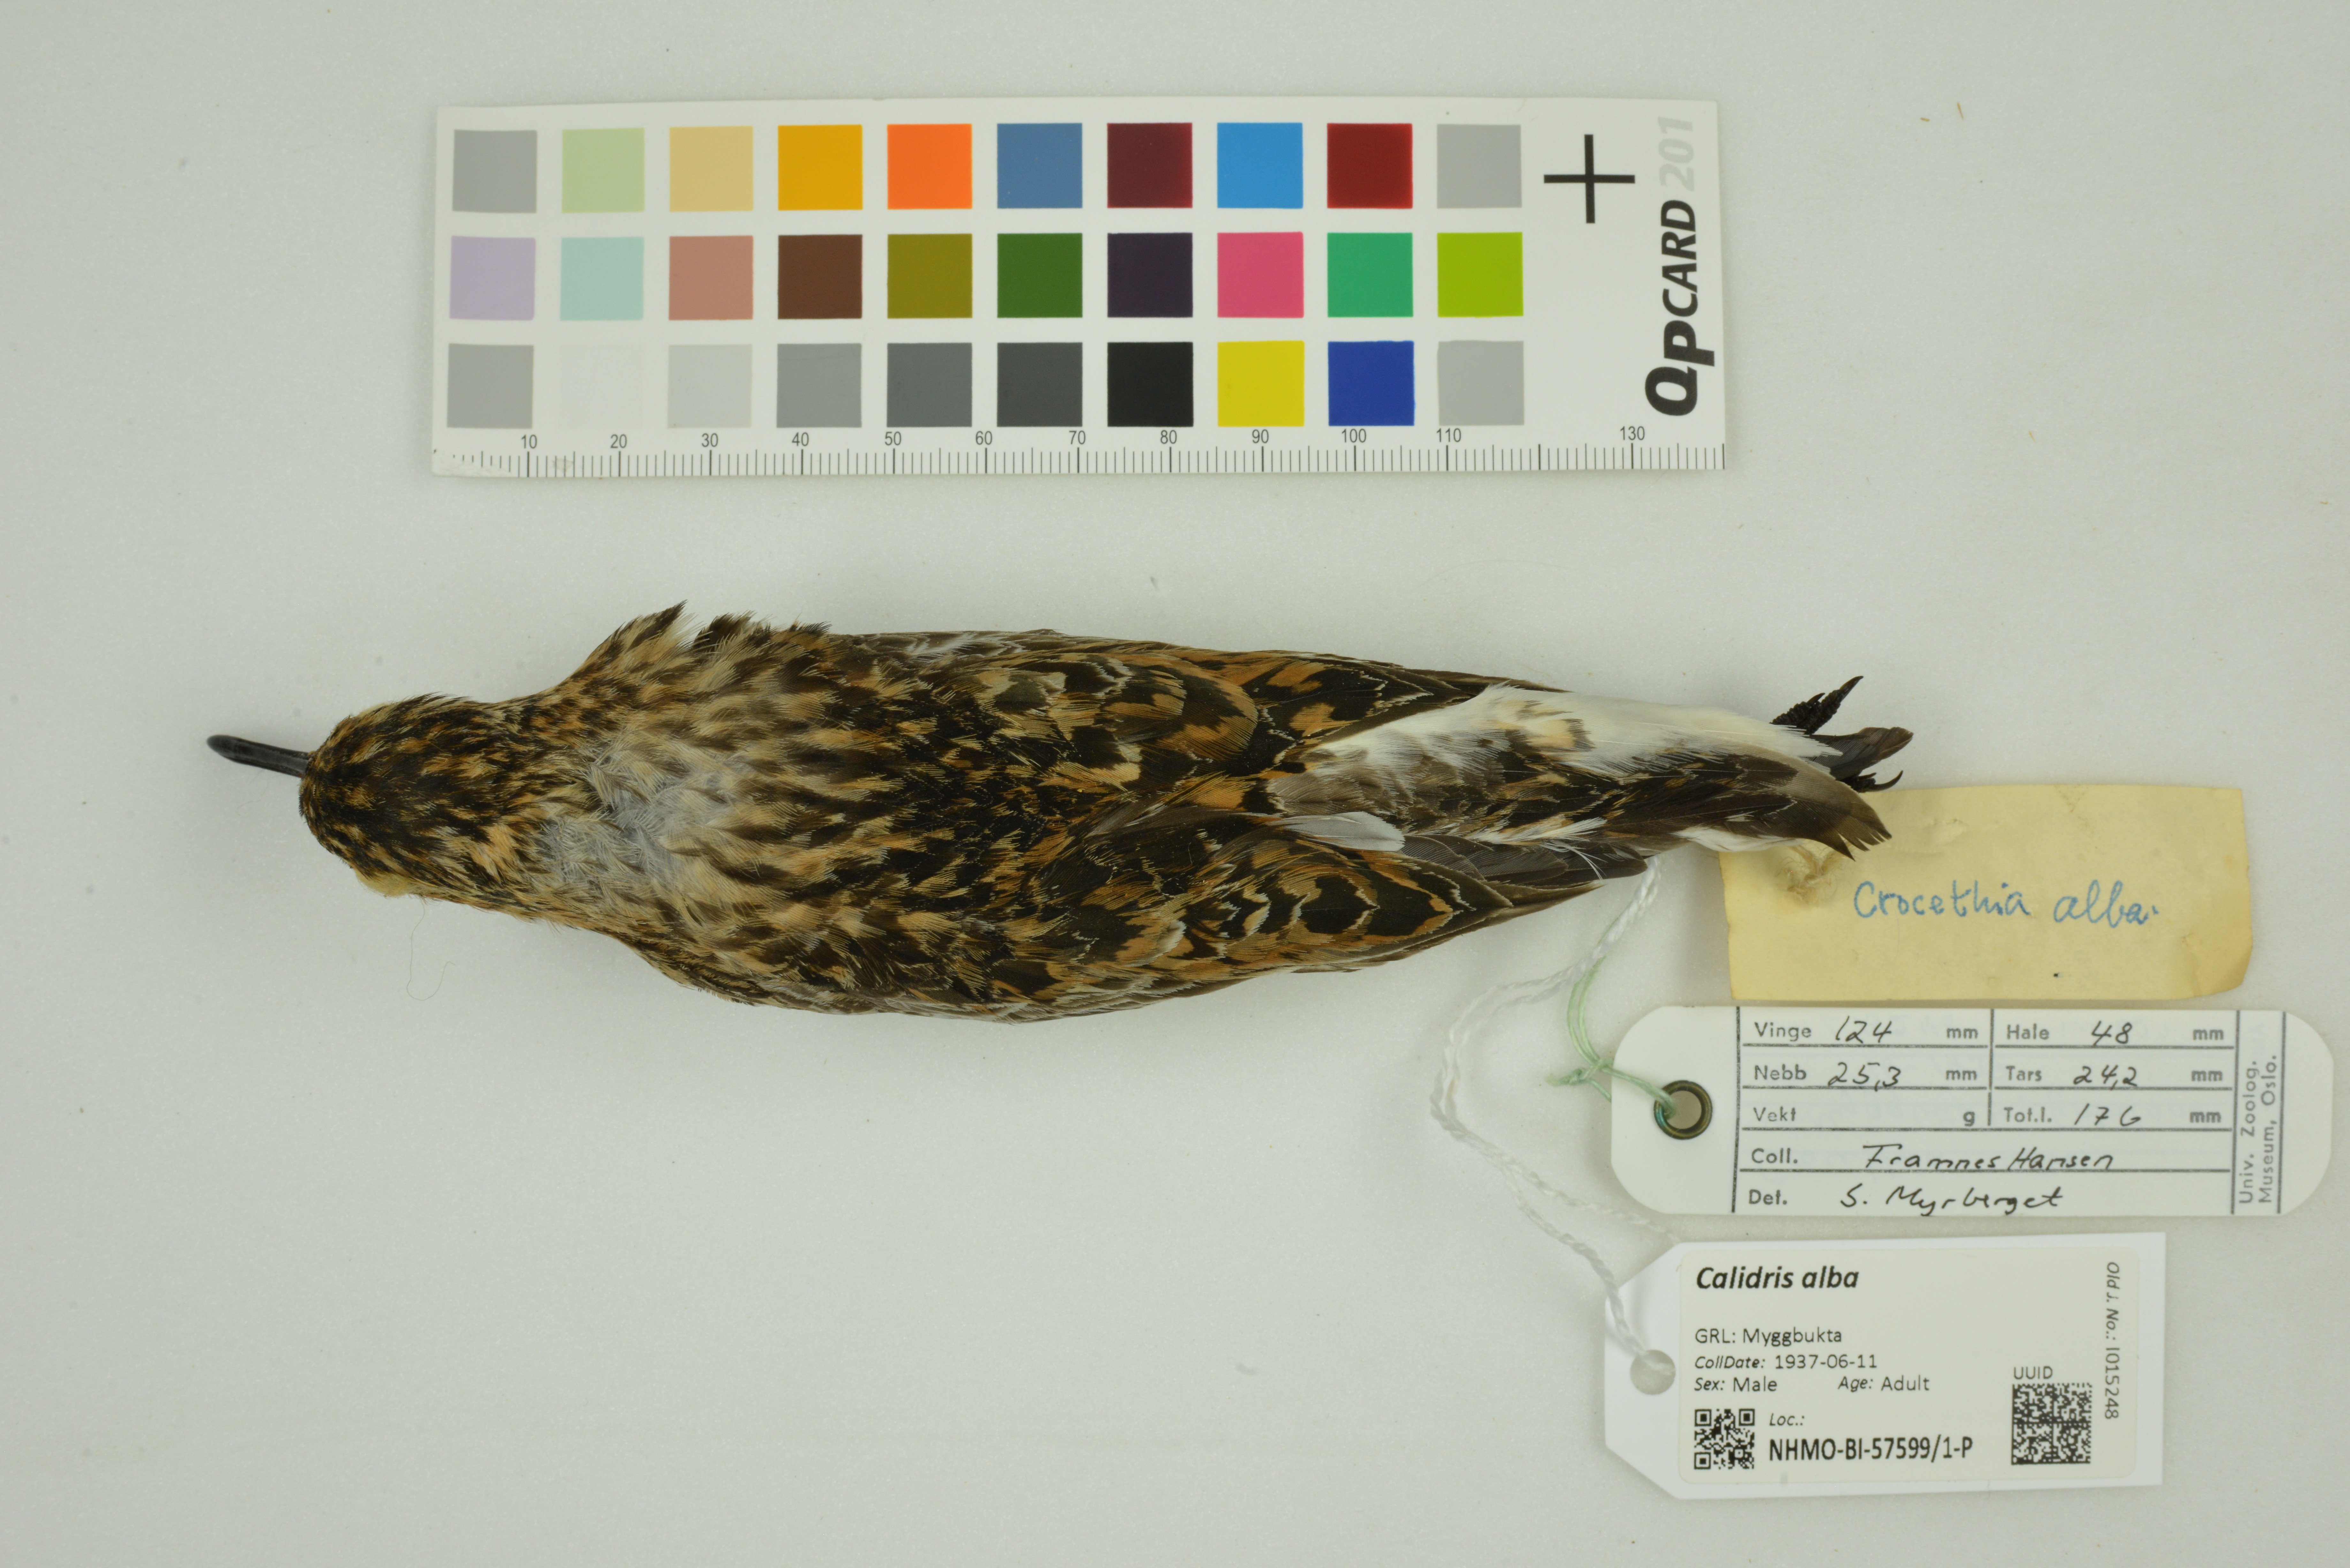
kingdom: Animalia
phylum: Chordata
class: Aves
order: Charadriiformes
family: Scolopacidae
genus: Calidris
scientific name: Calidris alba
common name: Sanderling
